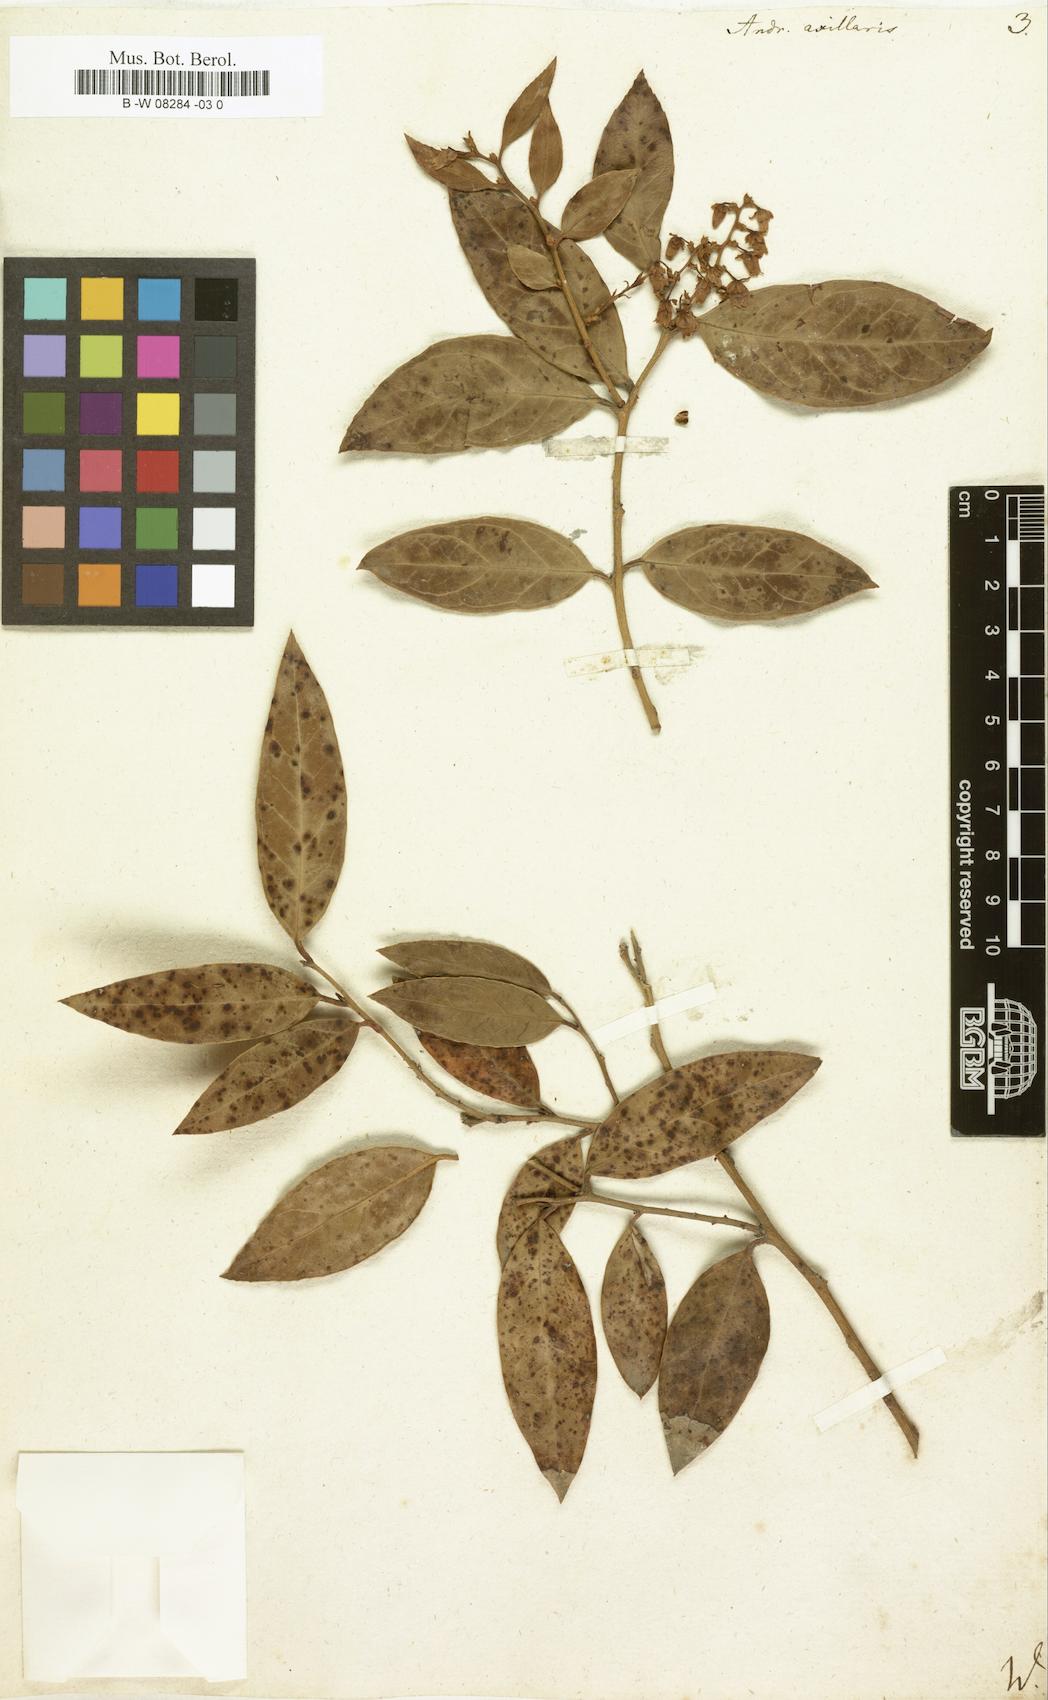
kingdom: Plantae
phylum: Tracheophyta
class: Magnoliopsida
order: Ericales
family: Ericaceae
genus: Leucothoe
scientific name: Leucothoe axillaris
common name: Leucothoe
